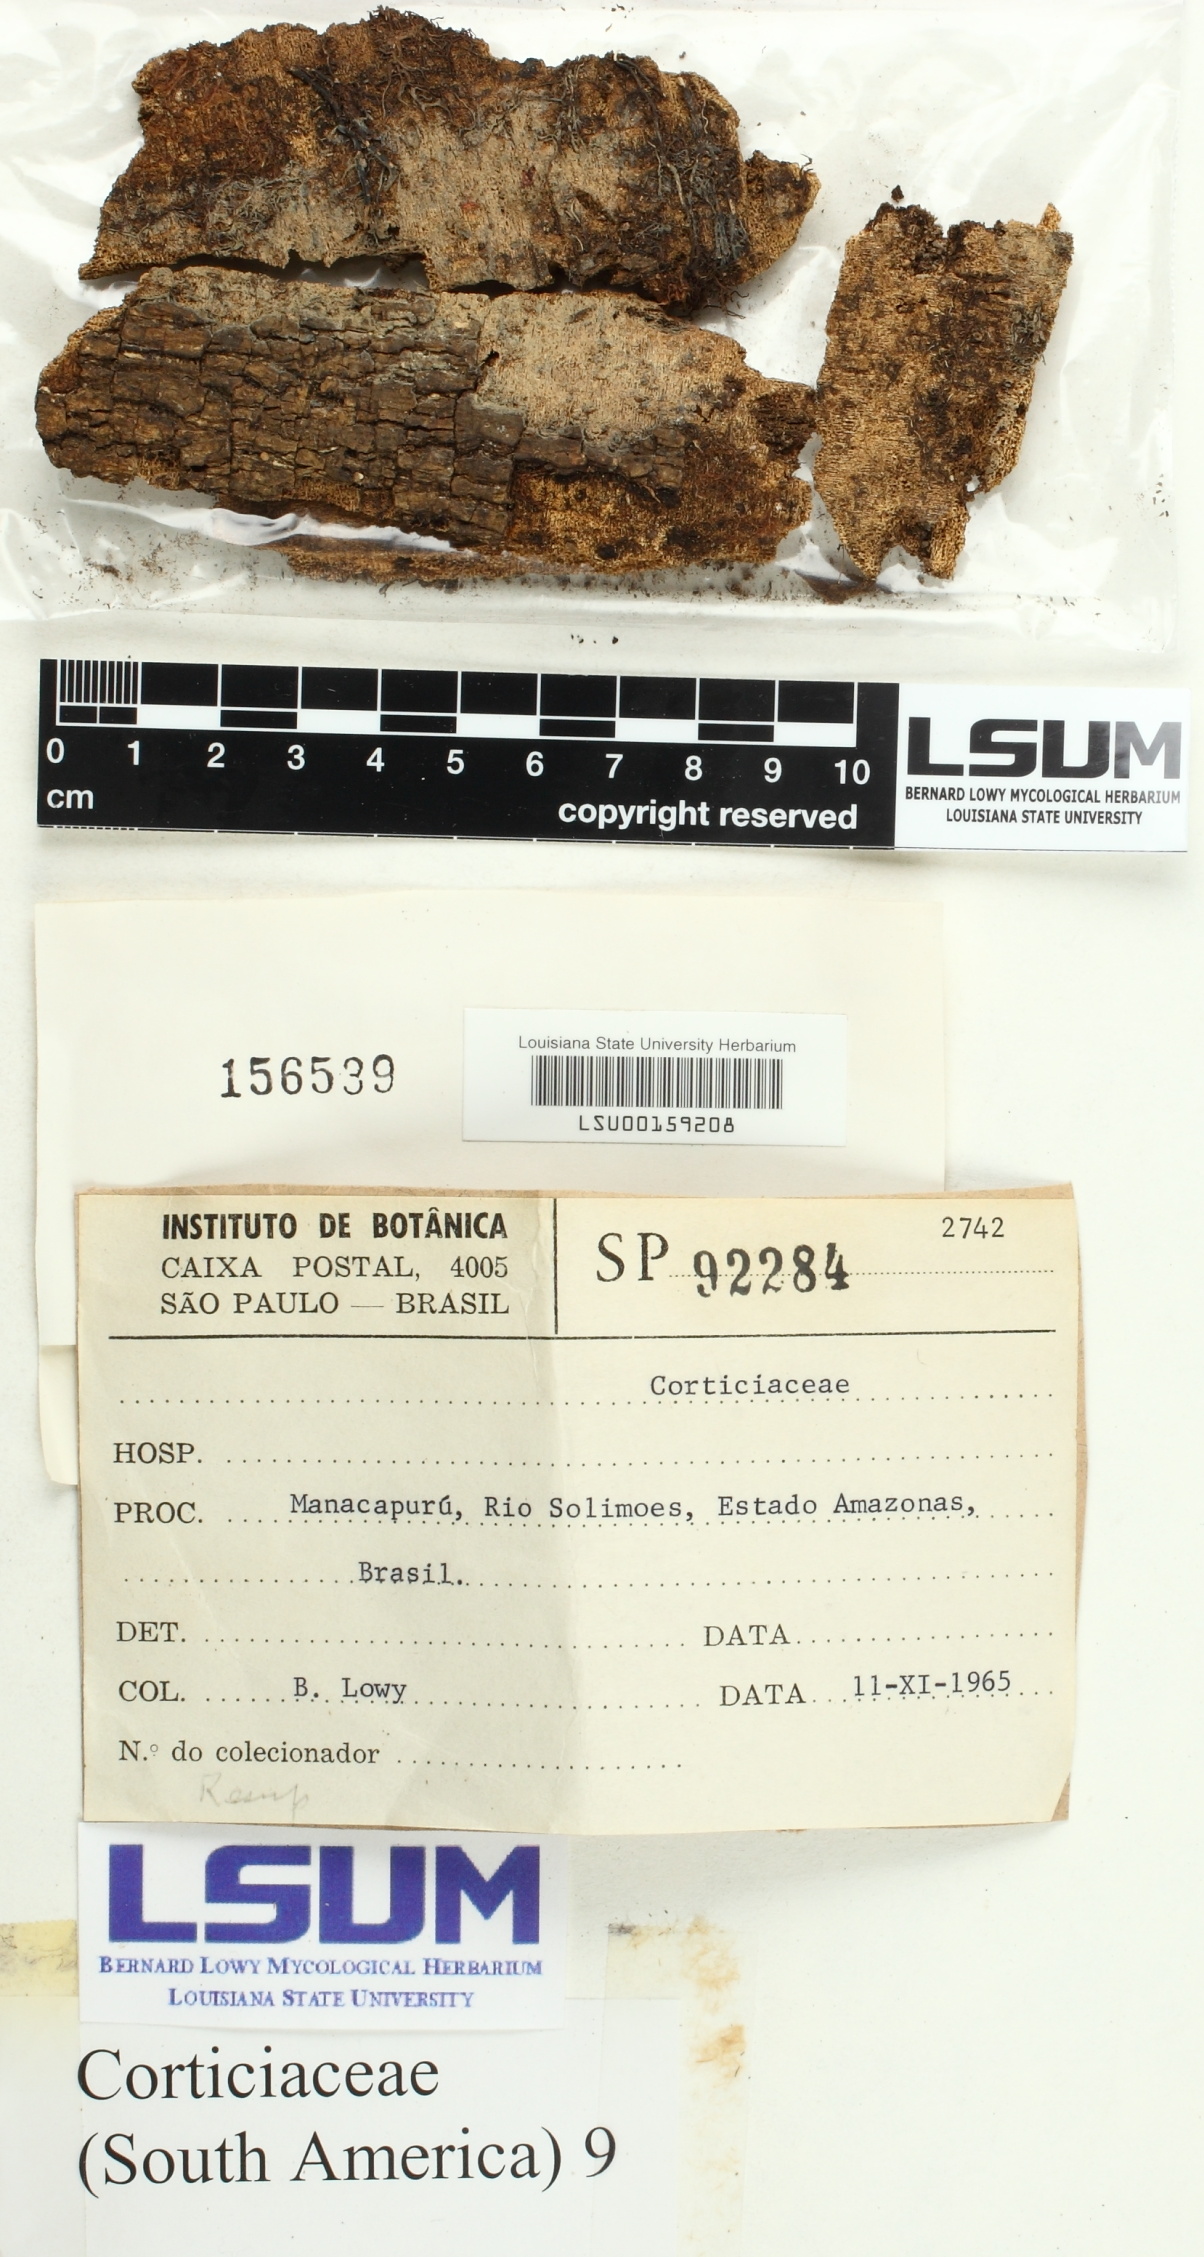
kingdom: Fungi
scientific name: Fungi
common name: Fungi
